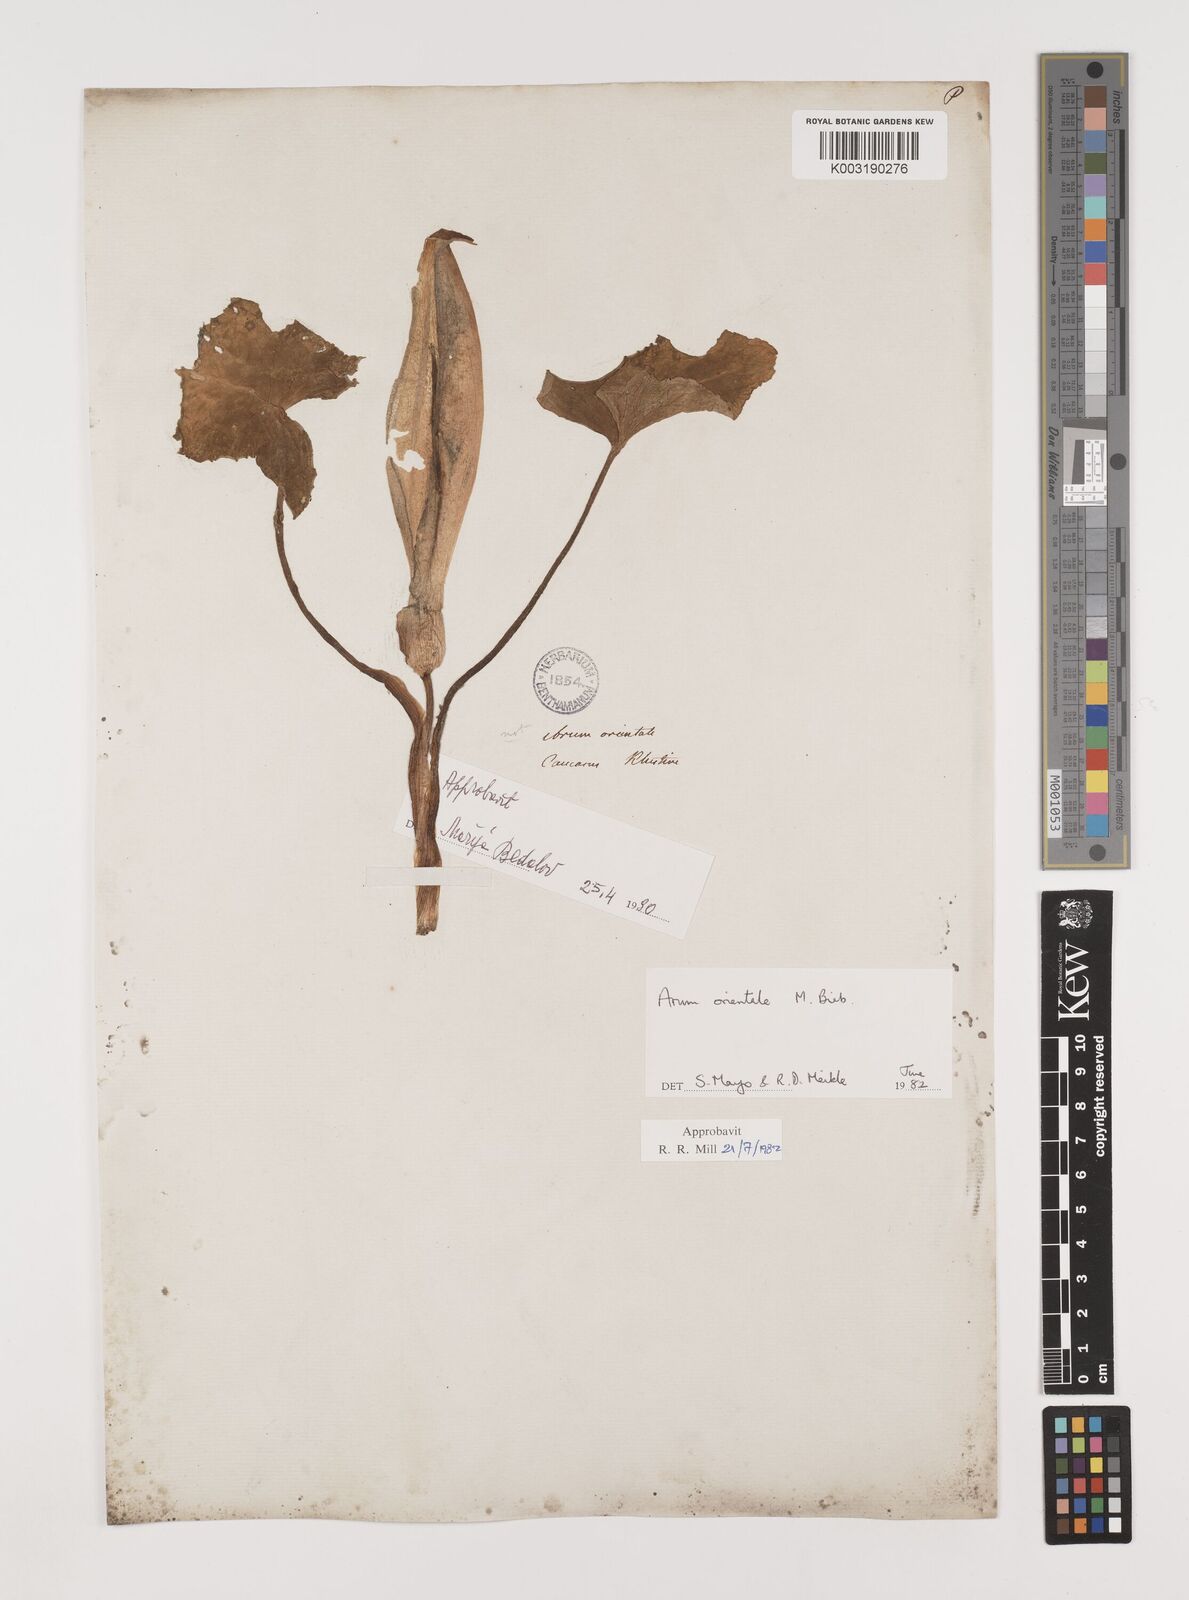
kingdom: Plantae
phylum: Tracheophyta
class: Liliopsida
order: Alismatales
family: Araceae
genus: Arum
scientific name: Arum orientale
